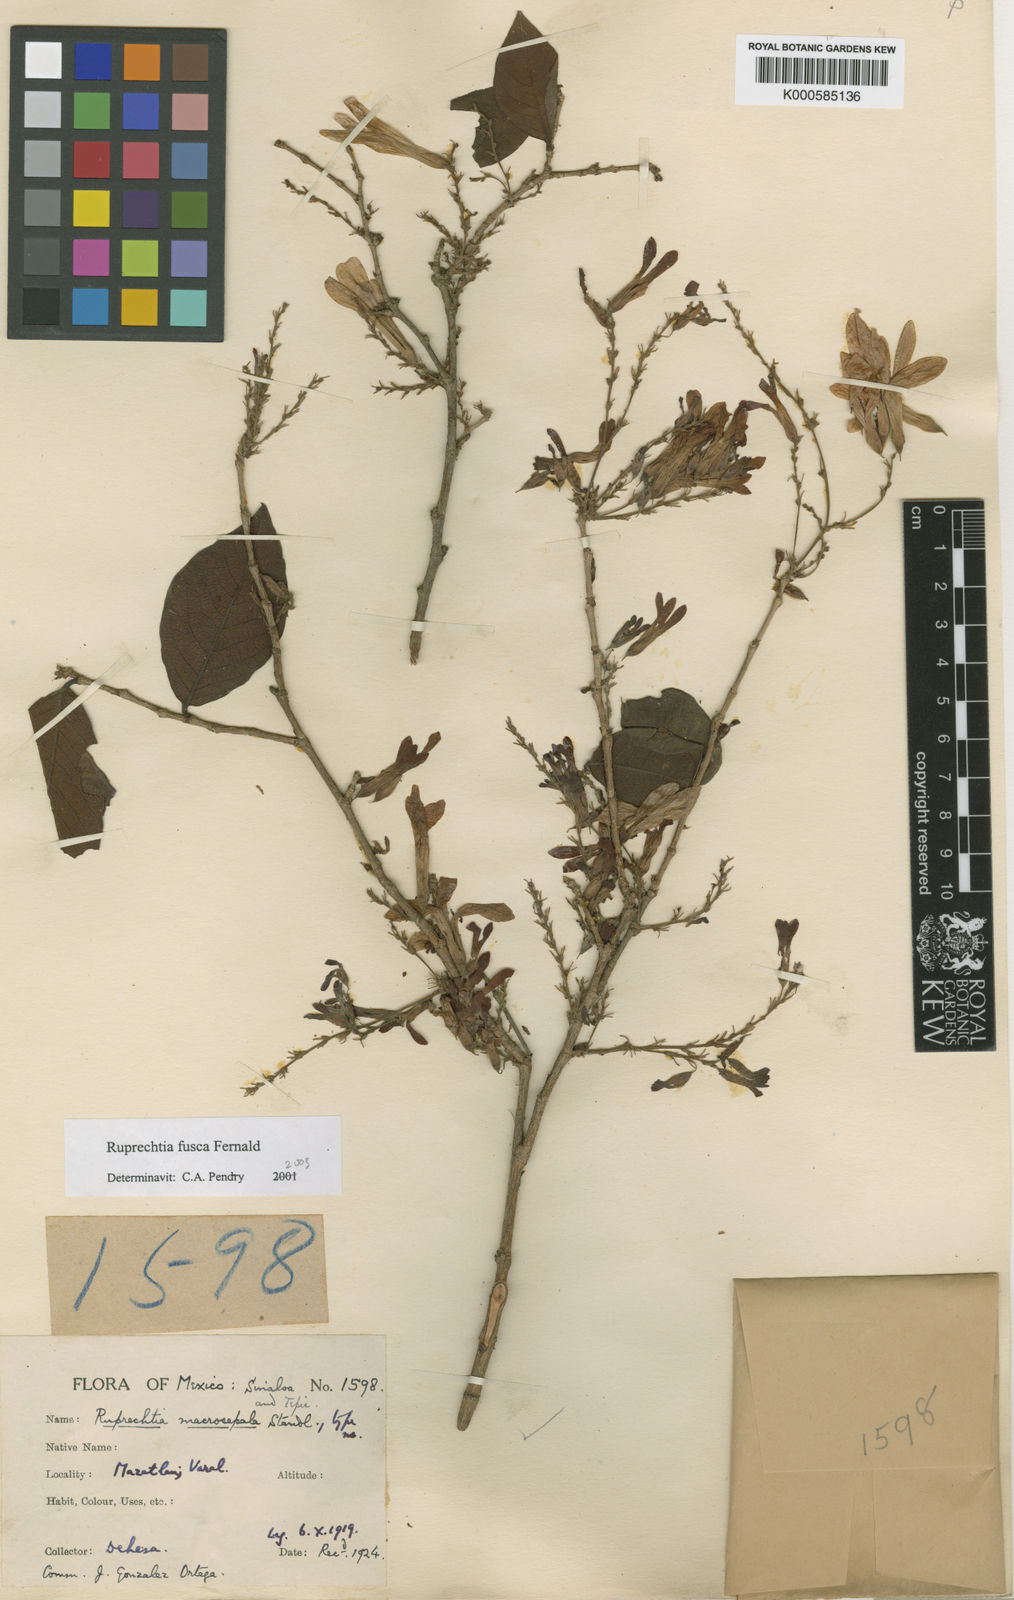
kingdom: Plantae
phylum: Tracheophyta
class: Magnoliopsida
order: Caryophyllales
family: Polygonaceae
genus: Ruprechtia
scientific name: Ruprechtia fusca
